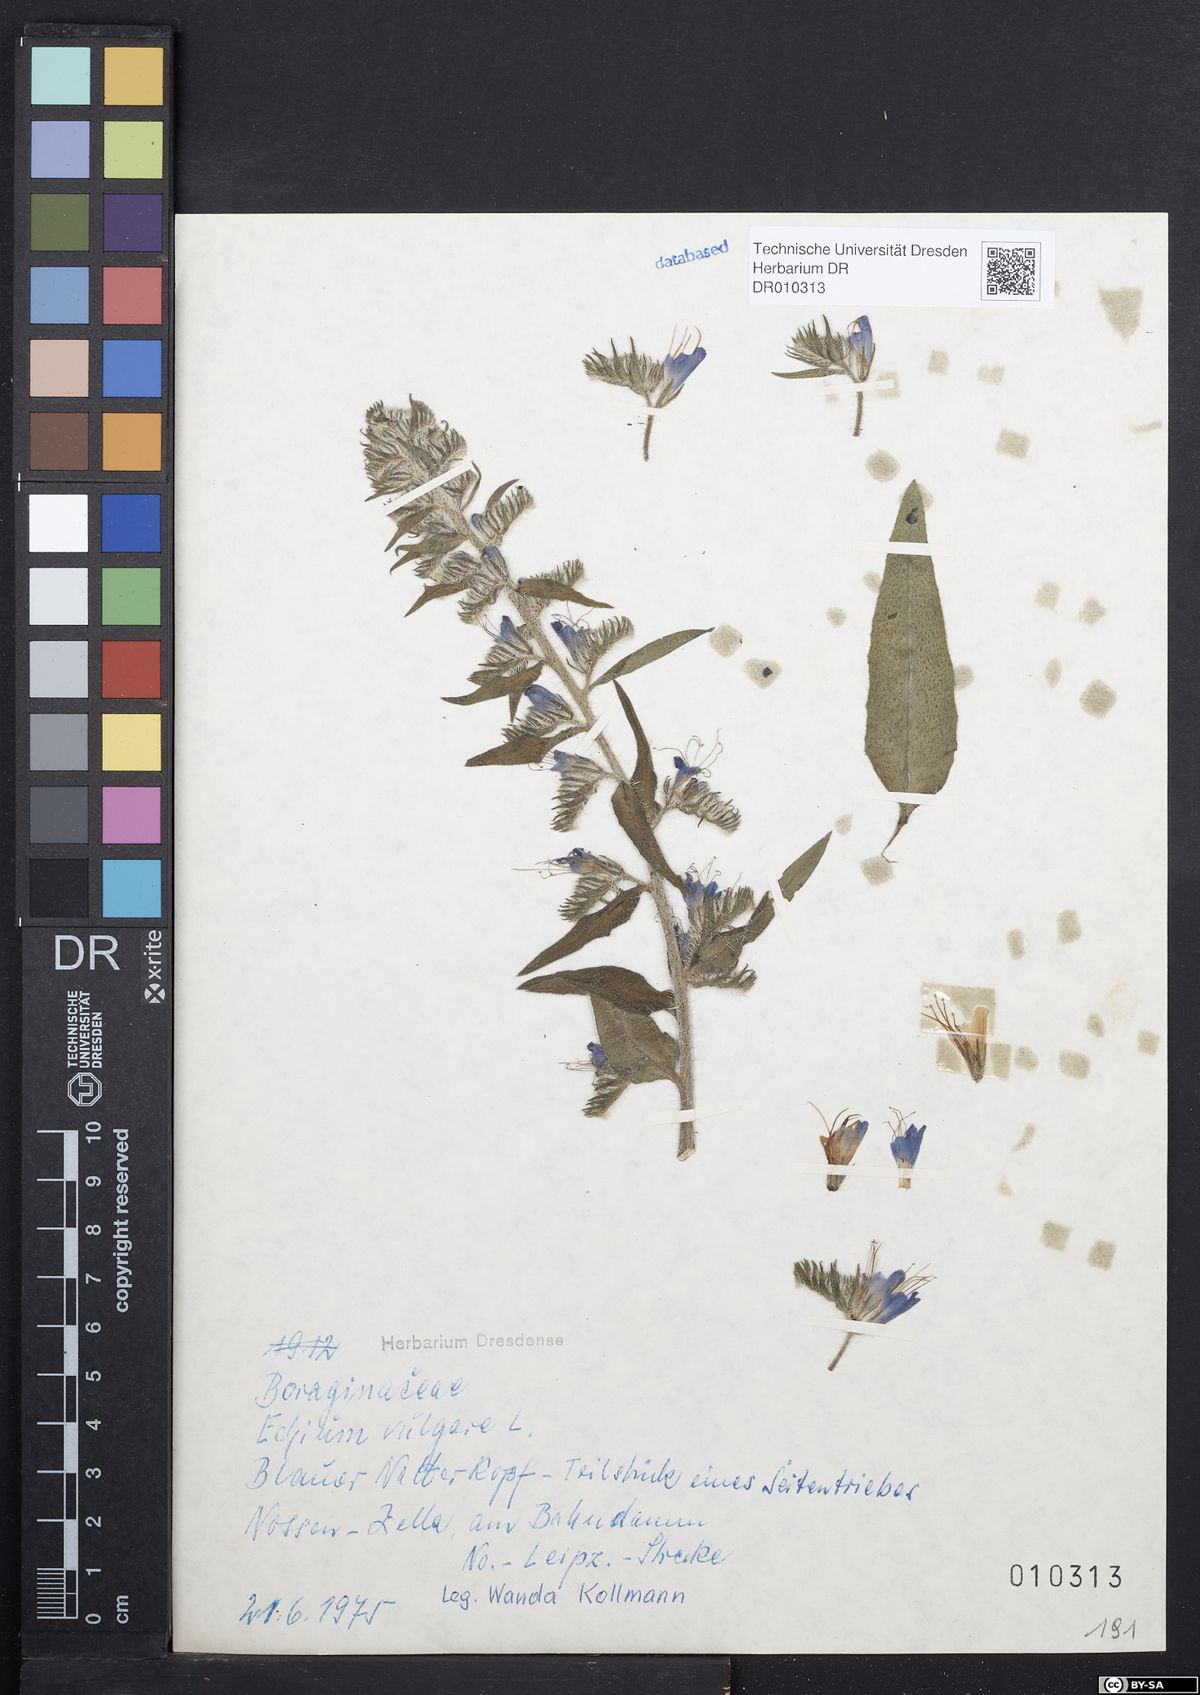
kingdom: Plantae
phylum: Tracheophyta
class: Magnoliopsida
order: Boraginales
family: Boraginaceae
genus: Echium
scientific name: Echium vulgare
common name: Common viper's bugloss
